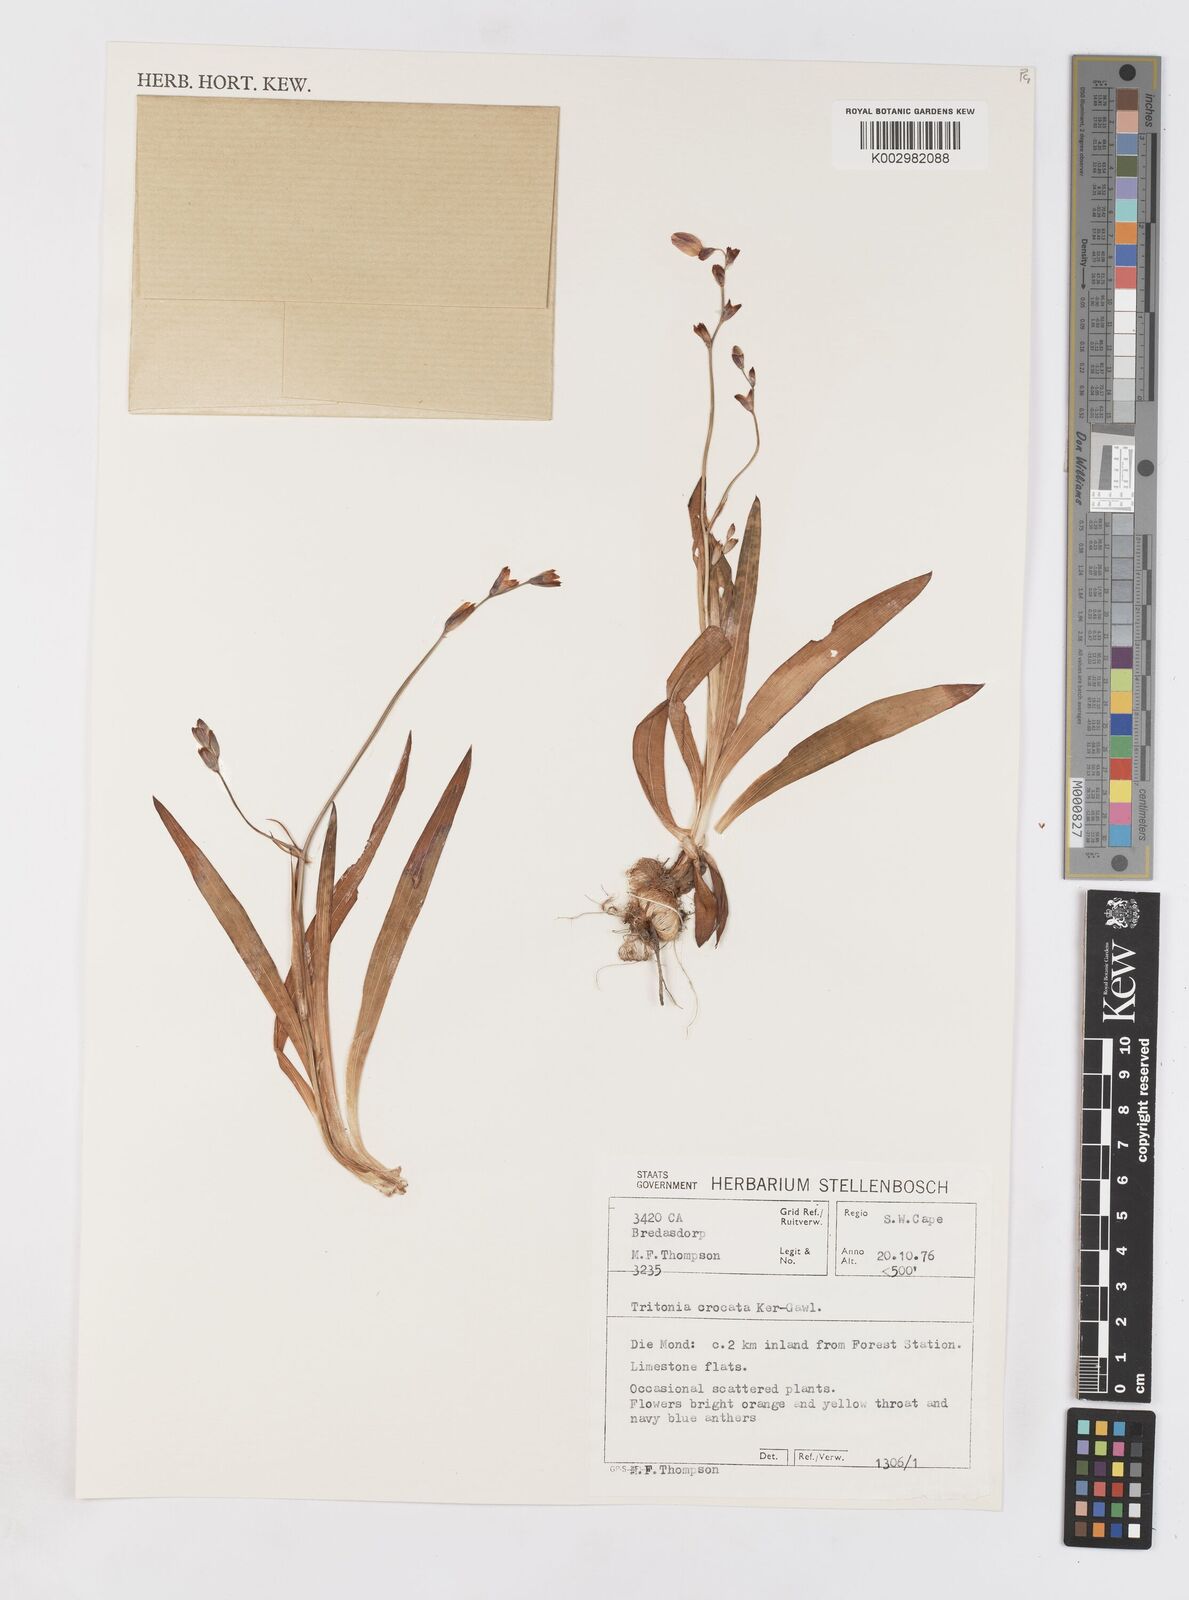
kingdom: Plantae
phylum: Tracheophyta
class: Liliopsida
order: Asparagales
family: Iridaceae
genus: Tritonia
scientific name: Tritonia crocata
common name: Flame-freesia
